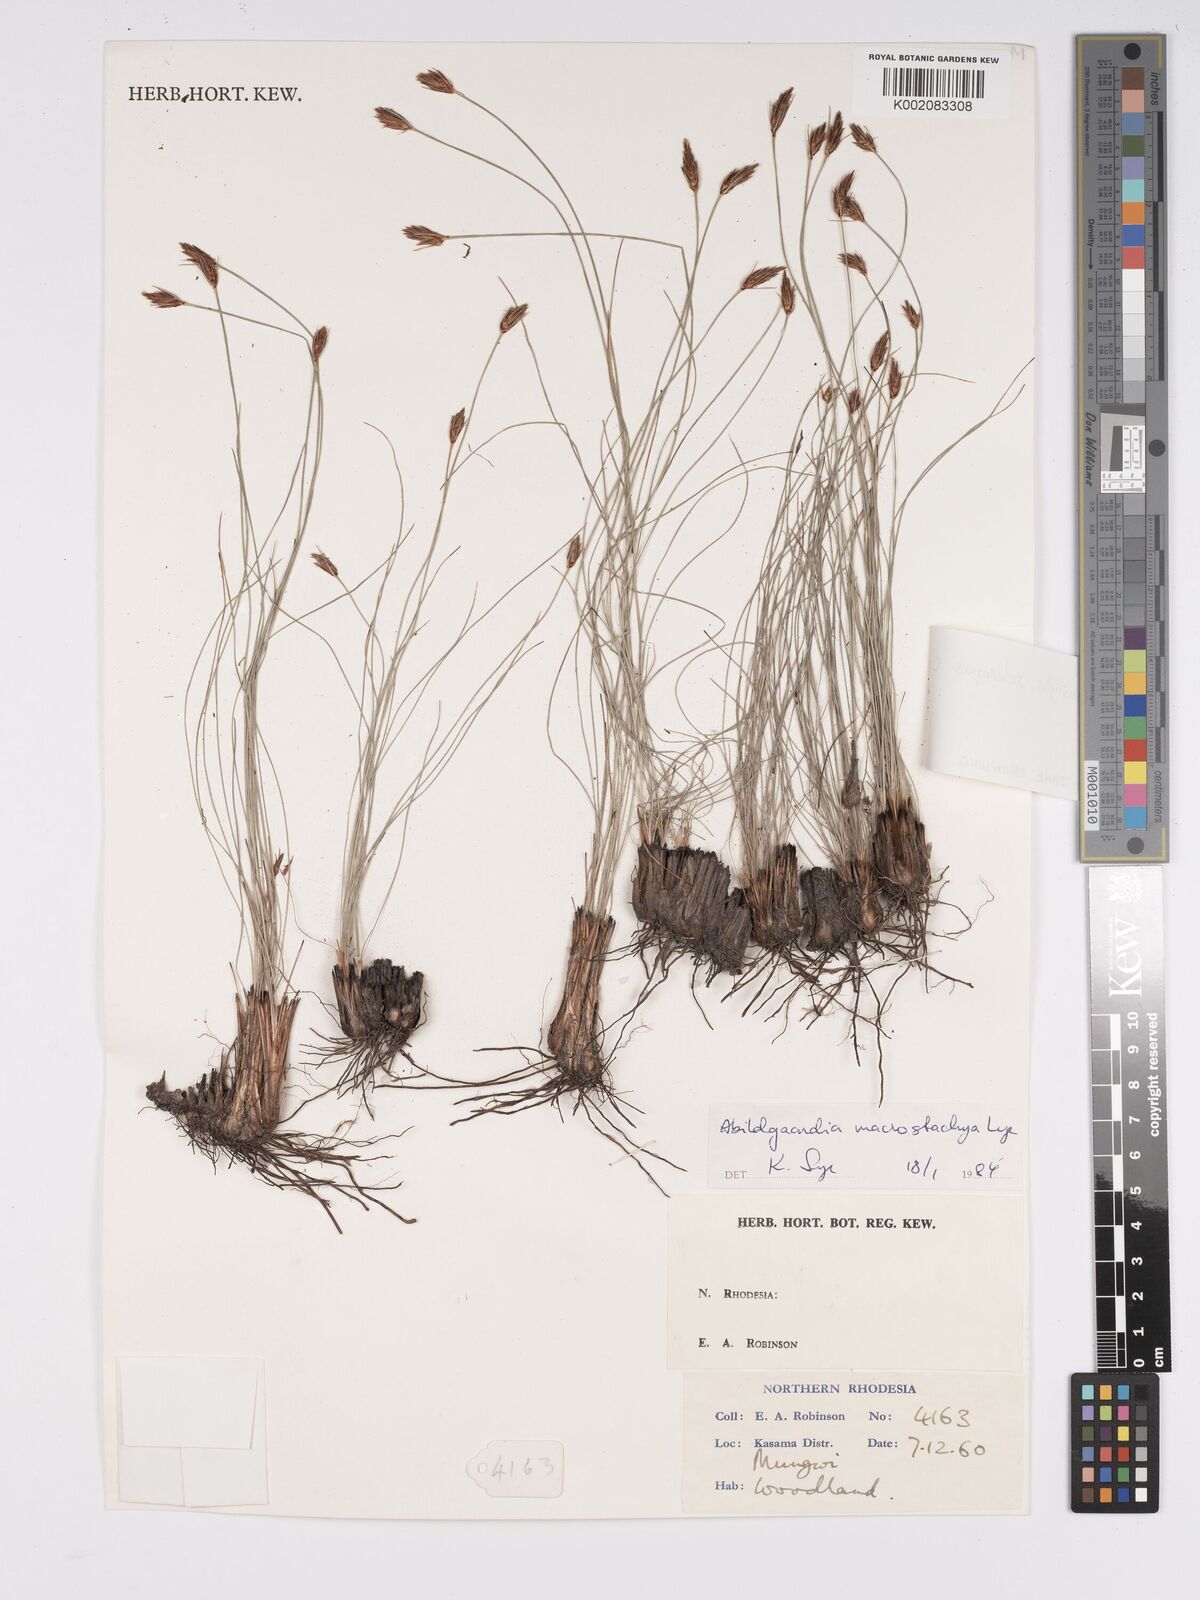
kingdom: Plantae
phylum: Tracheophyta
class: Liliopsida
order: Poales
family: Cyperaceae
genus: Bulbostylis
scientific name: Bulbostylis macrostachya
